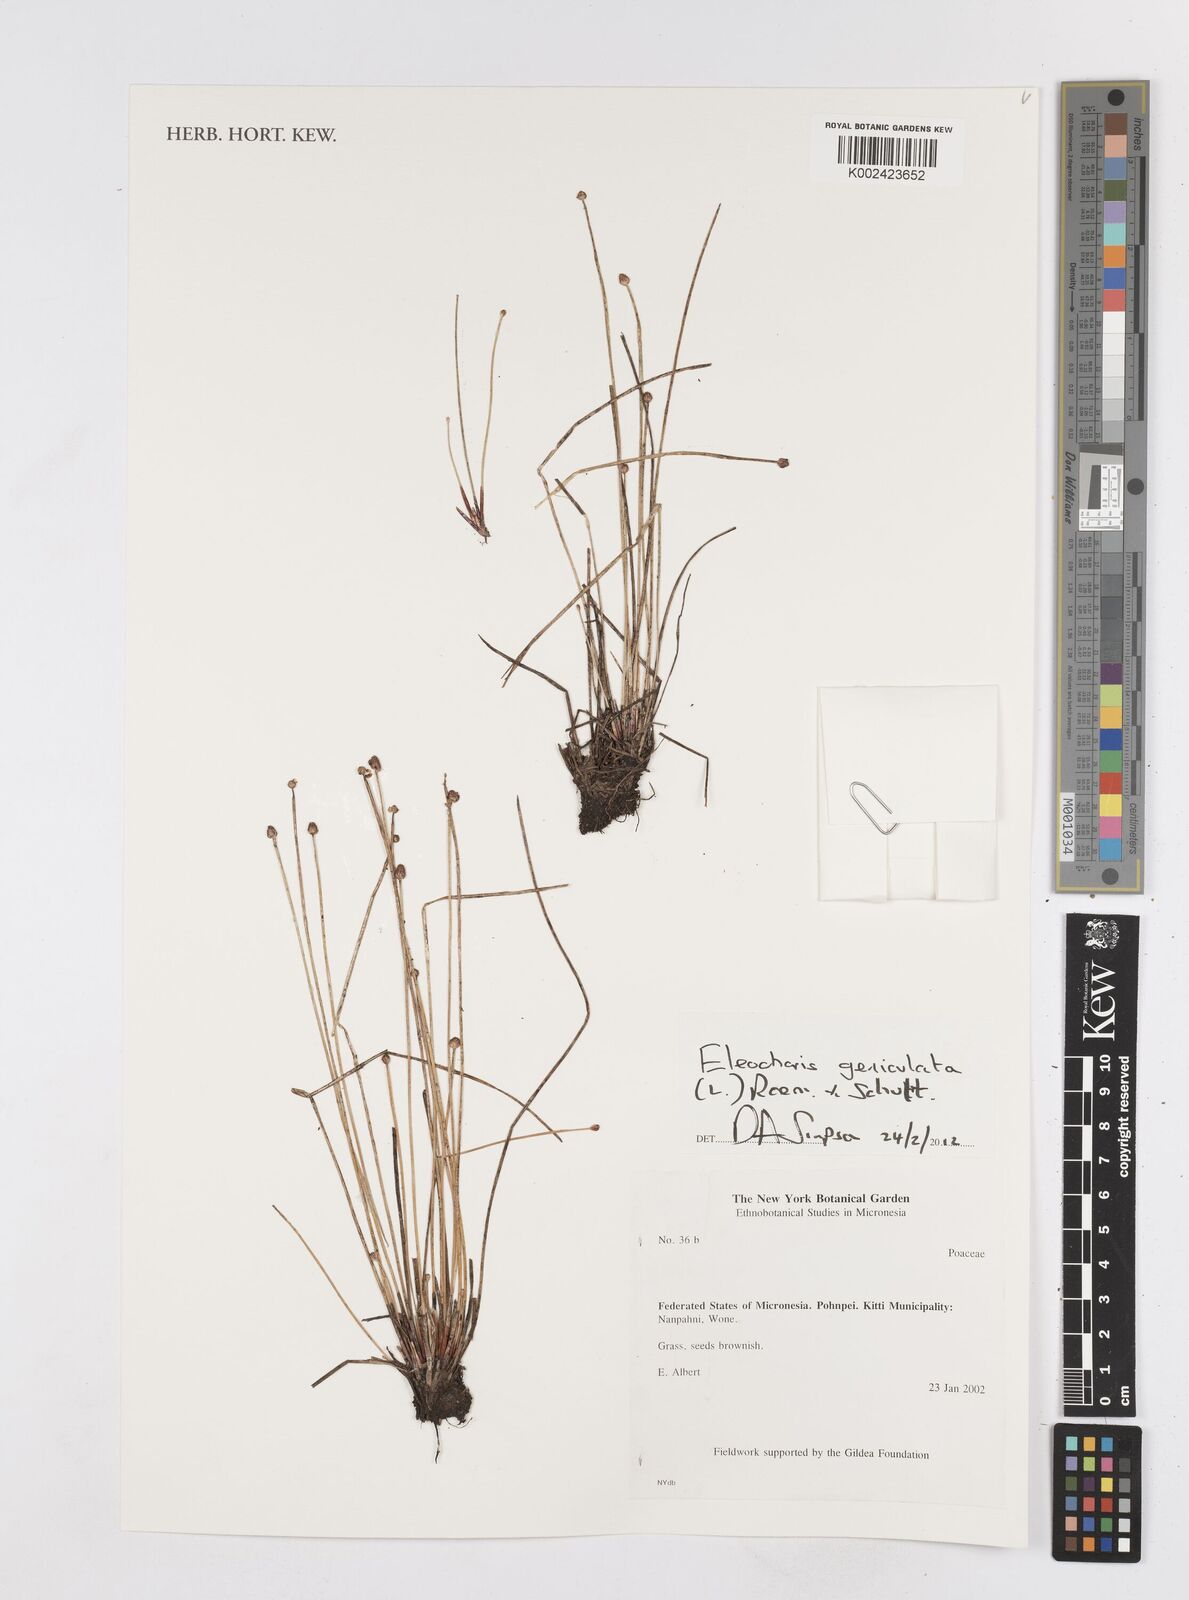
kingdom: Plantae
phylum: Tracheophyta
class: Liliopsida
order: Poales
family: Cyperaceae
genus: Eleocharis
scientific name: Eleocharis geniculata
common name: Canada spikesedge
